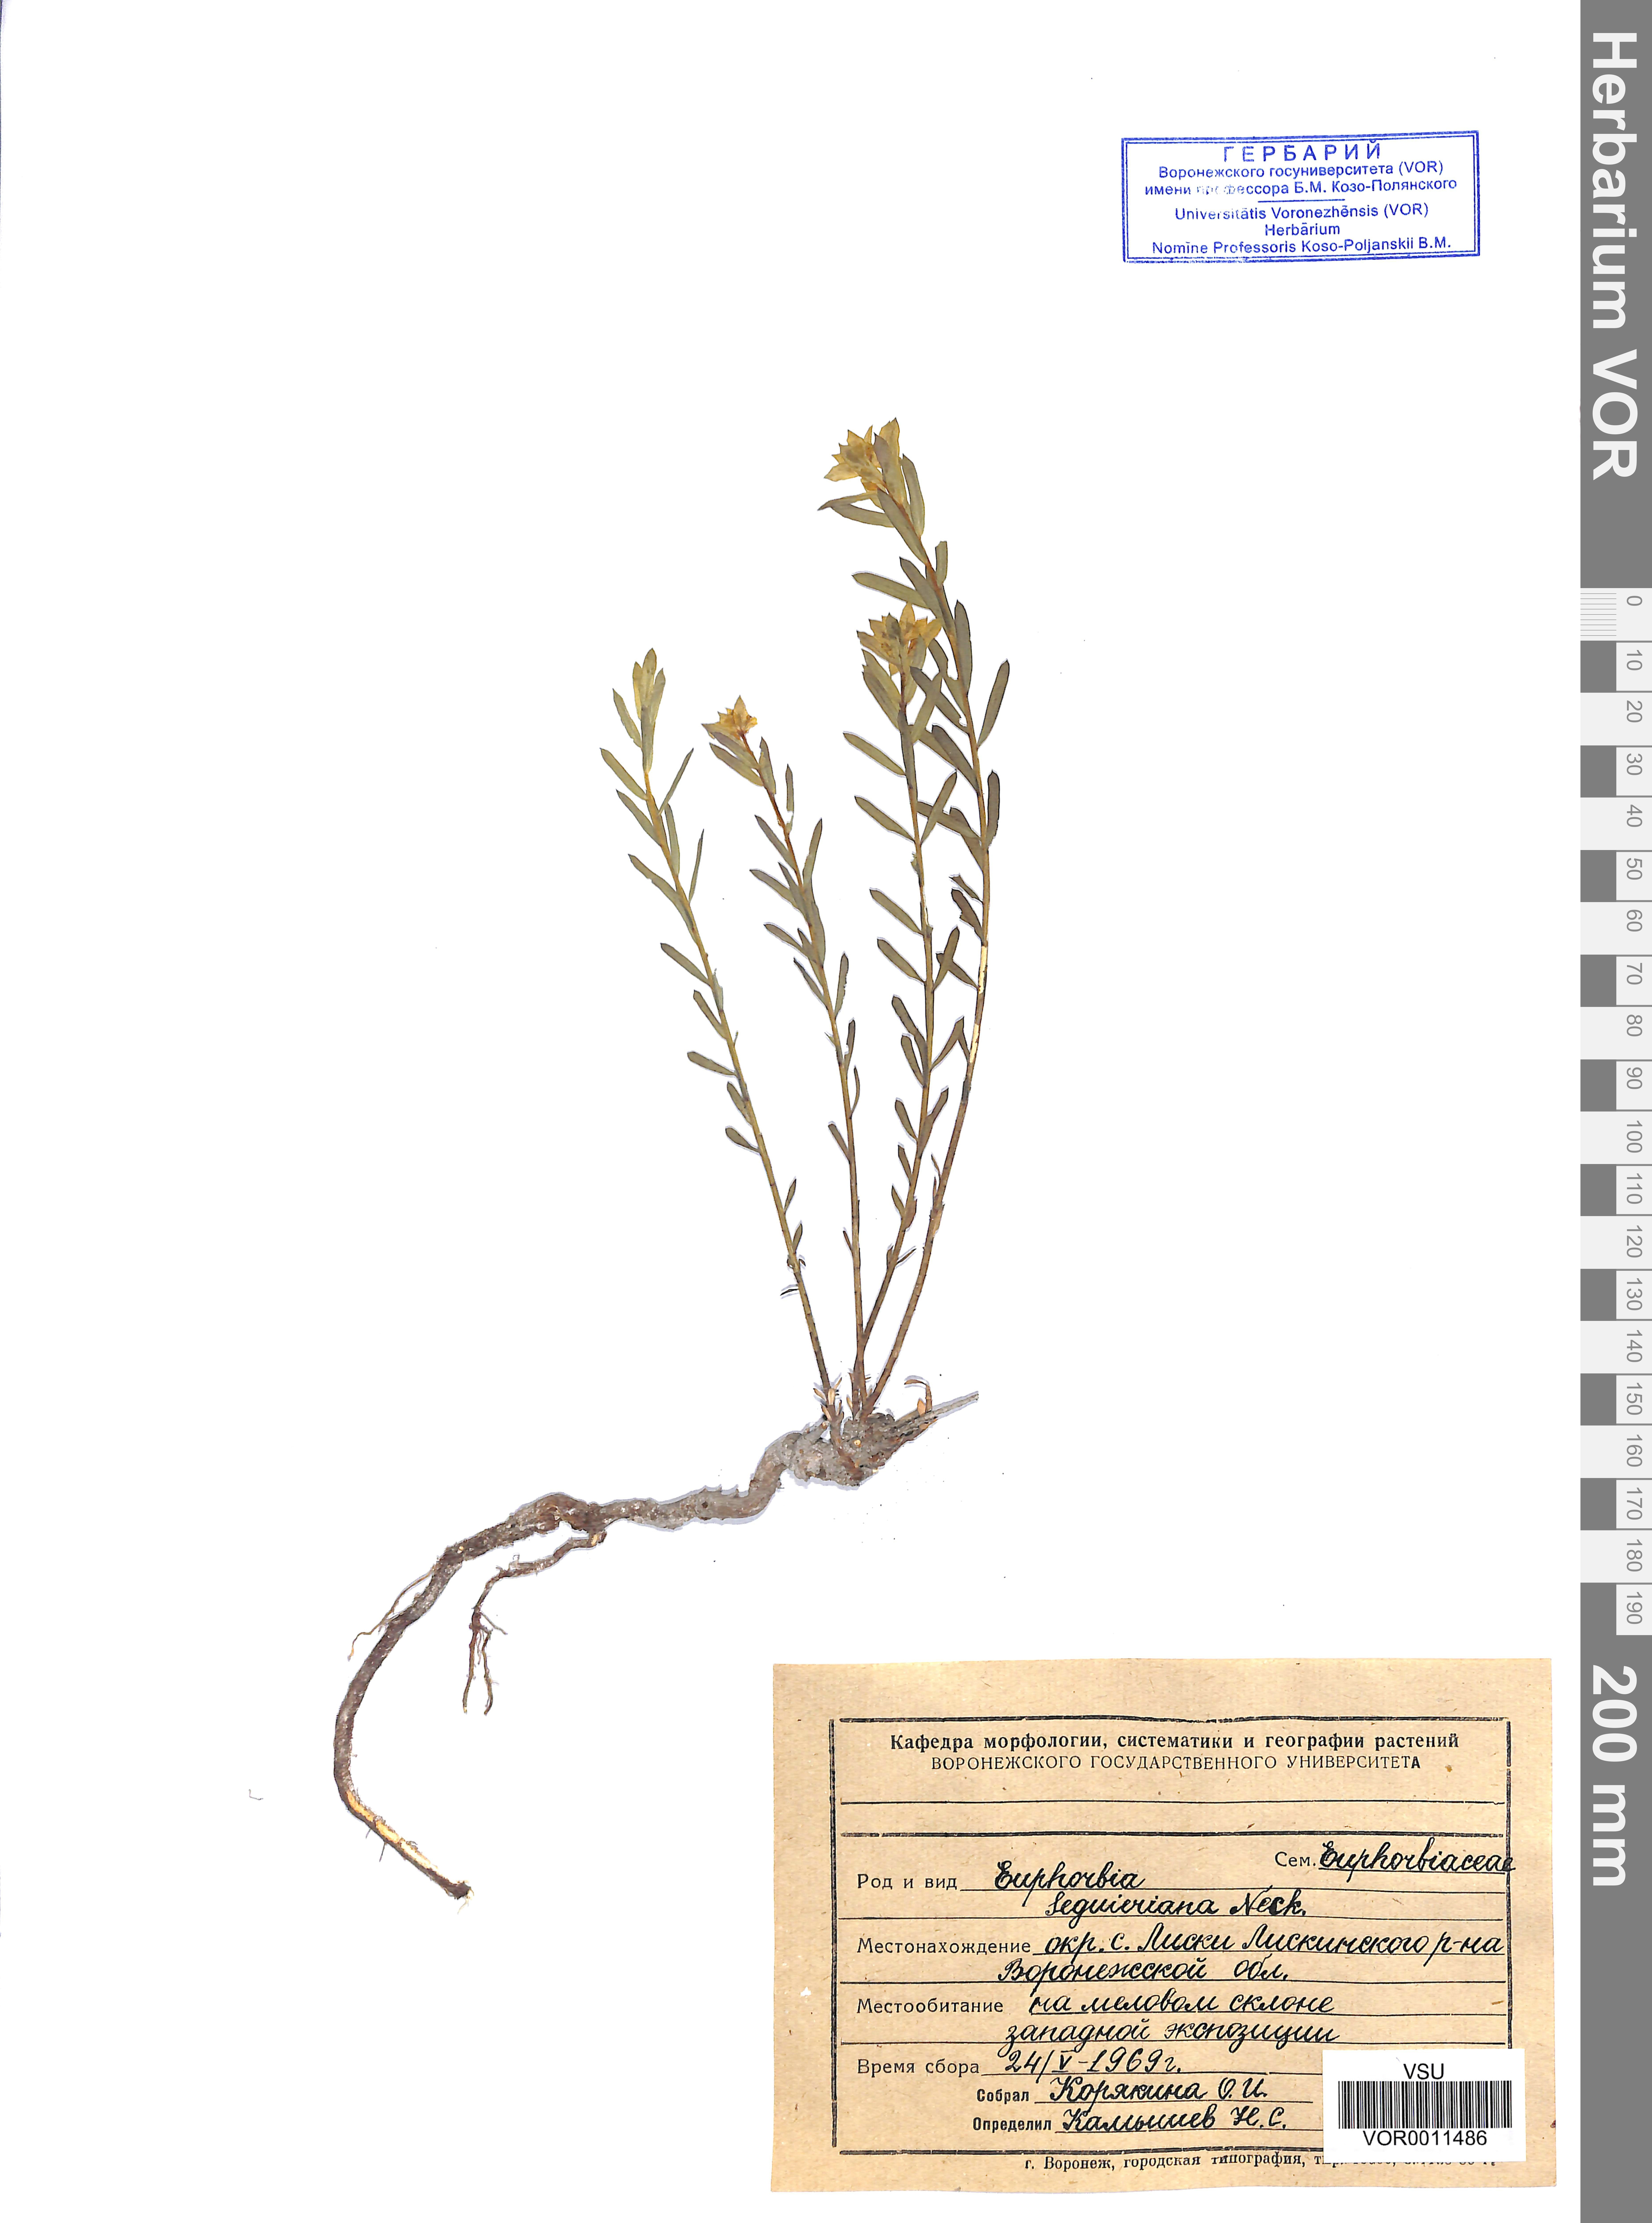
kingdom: Plantae
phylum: Tracheophyta
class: Magnoliopsida
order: Malpighiales
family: Euphorbiaceae
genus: Euphorbia
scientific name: Euphorbia seguieriana
